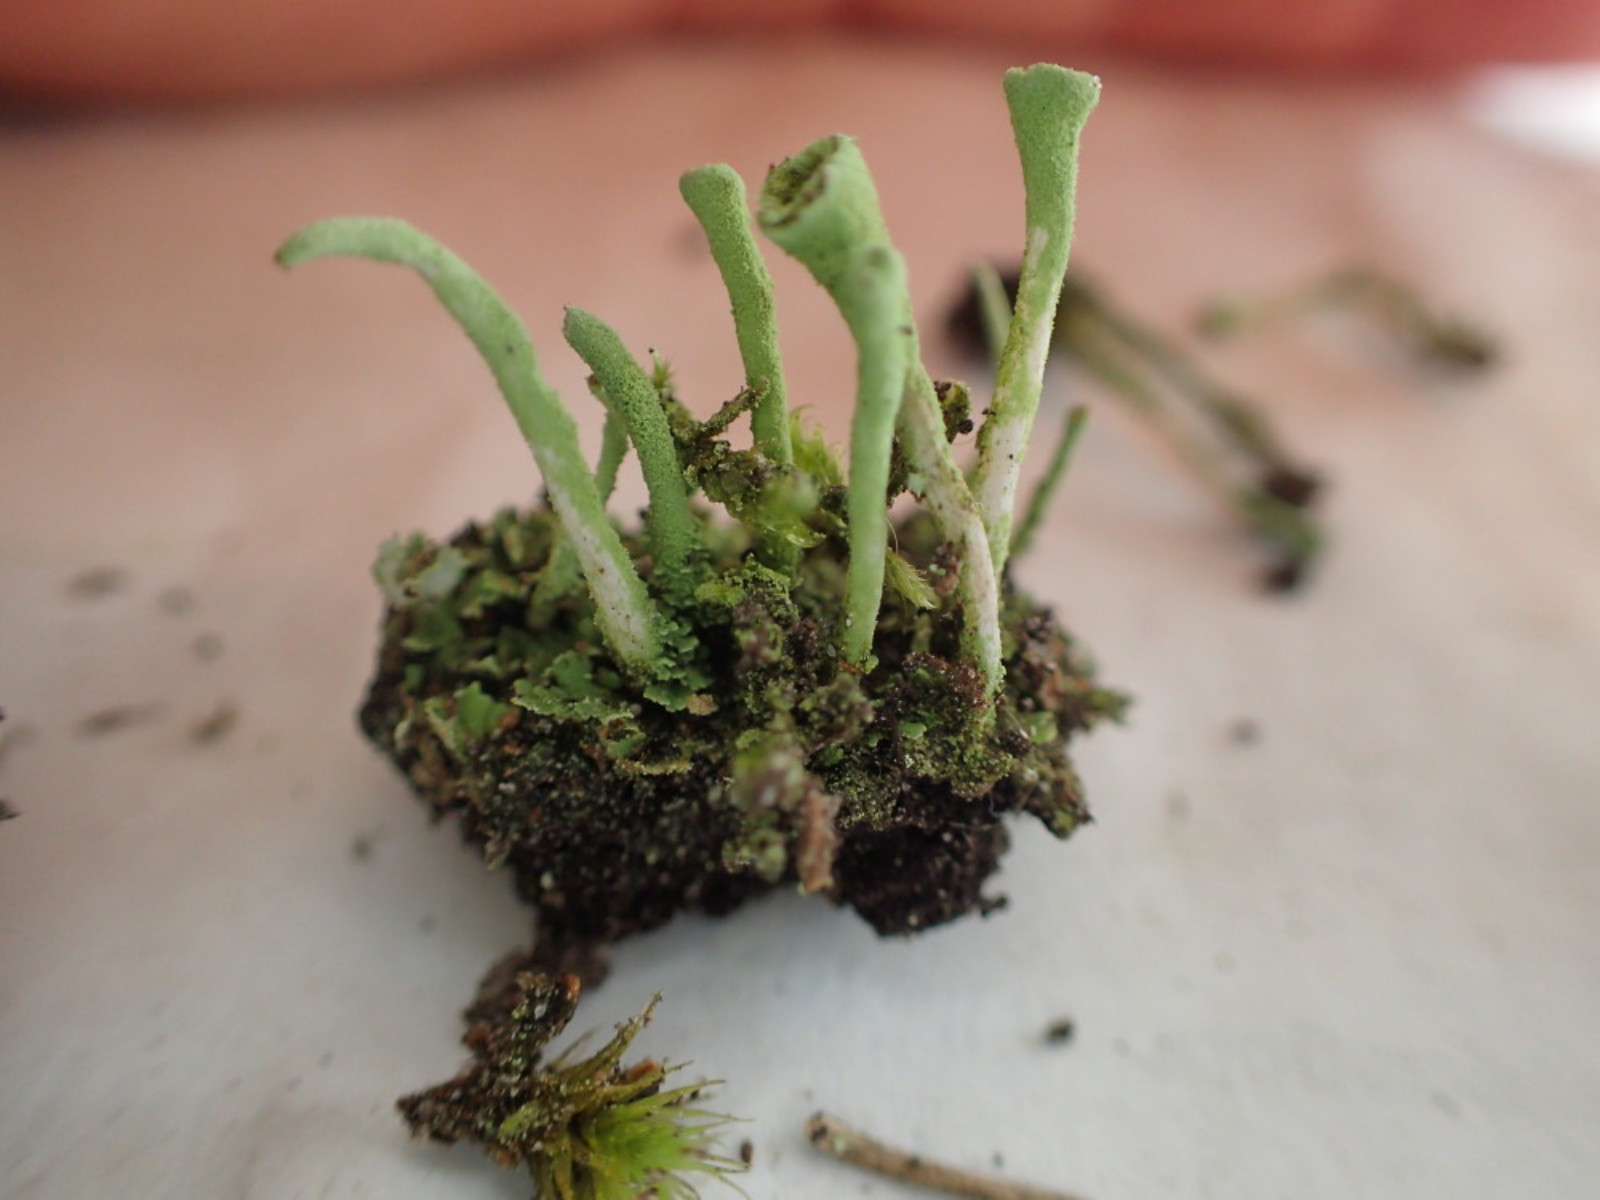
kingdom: Fungi
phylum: Ascomycota
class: Lecanoromycetes
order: Lecanorales
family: Cladoniaceae
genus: Cladonia
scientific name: Cladonia fimbriata
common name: bleggrøn bægerlav
